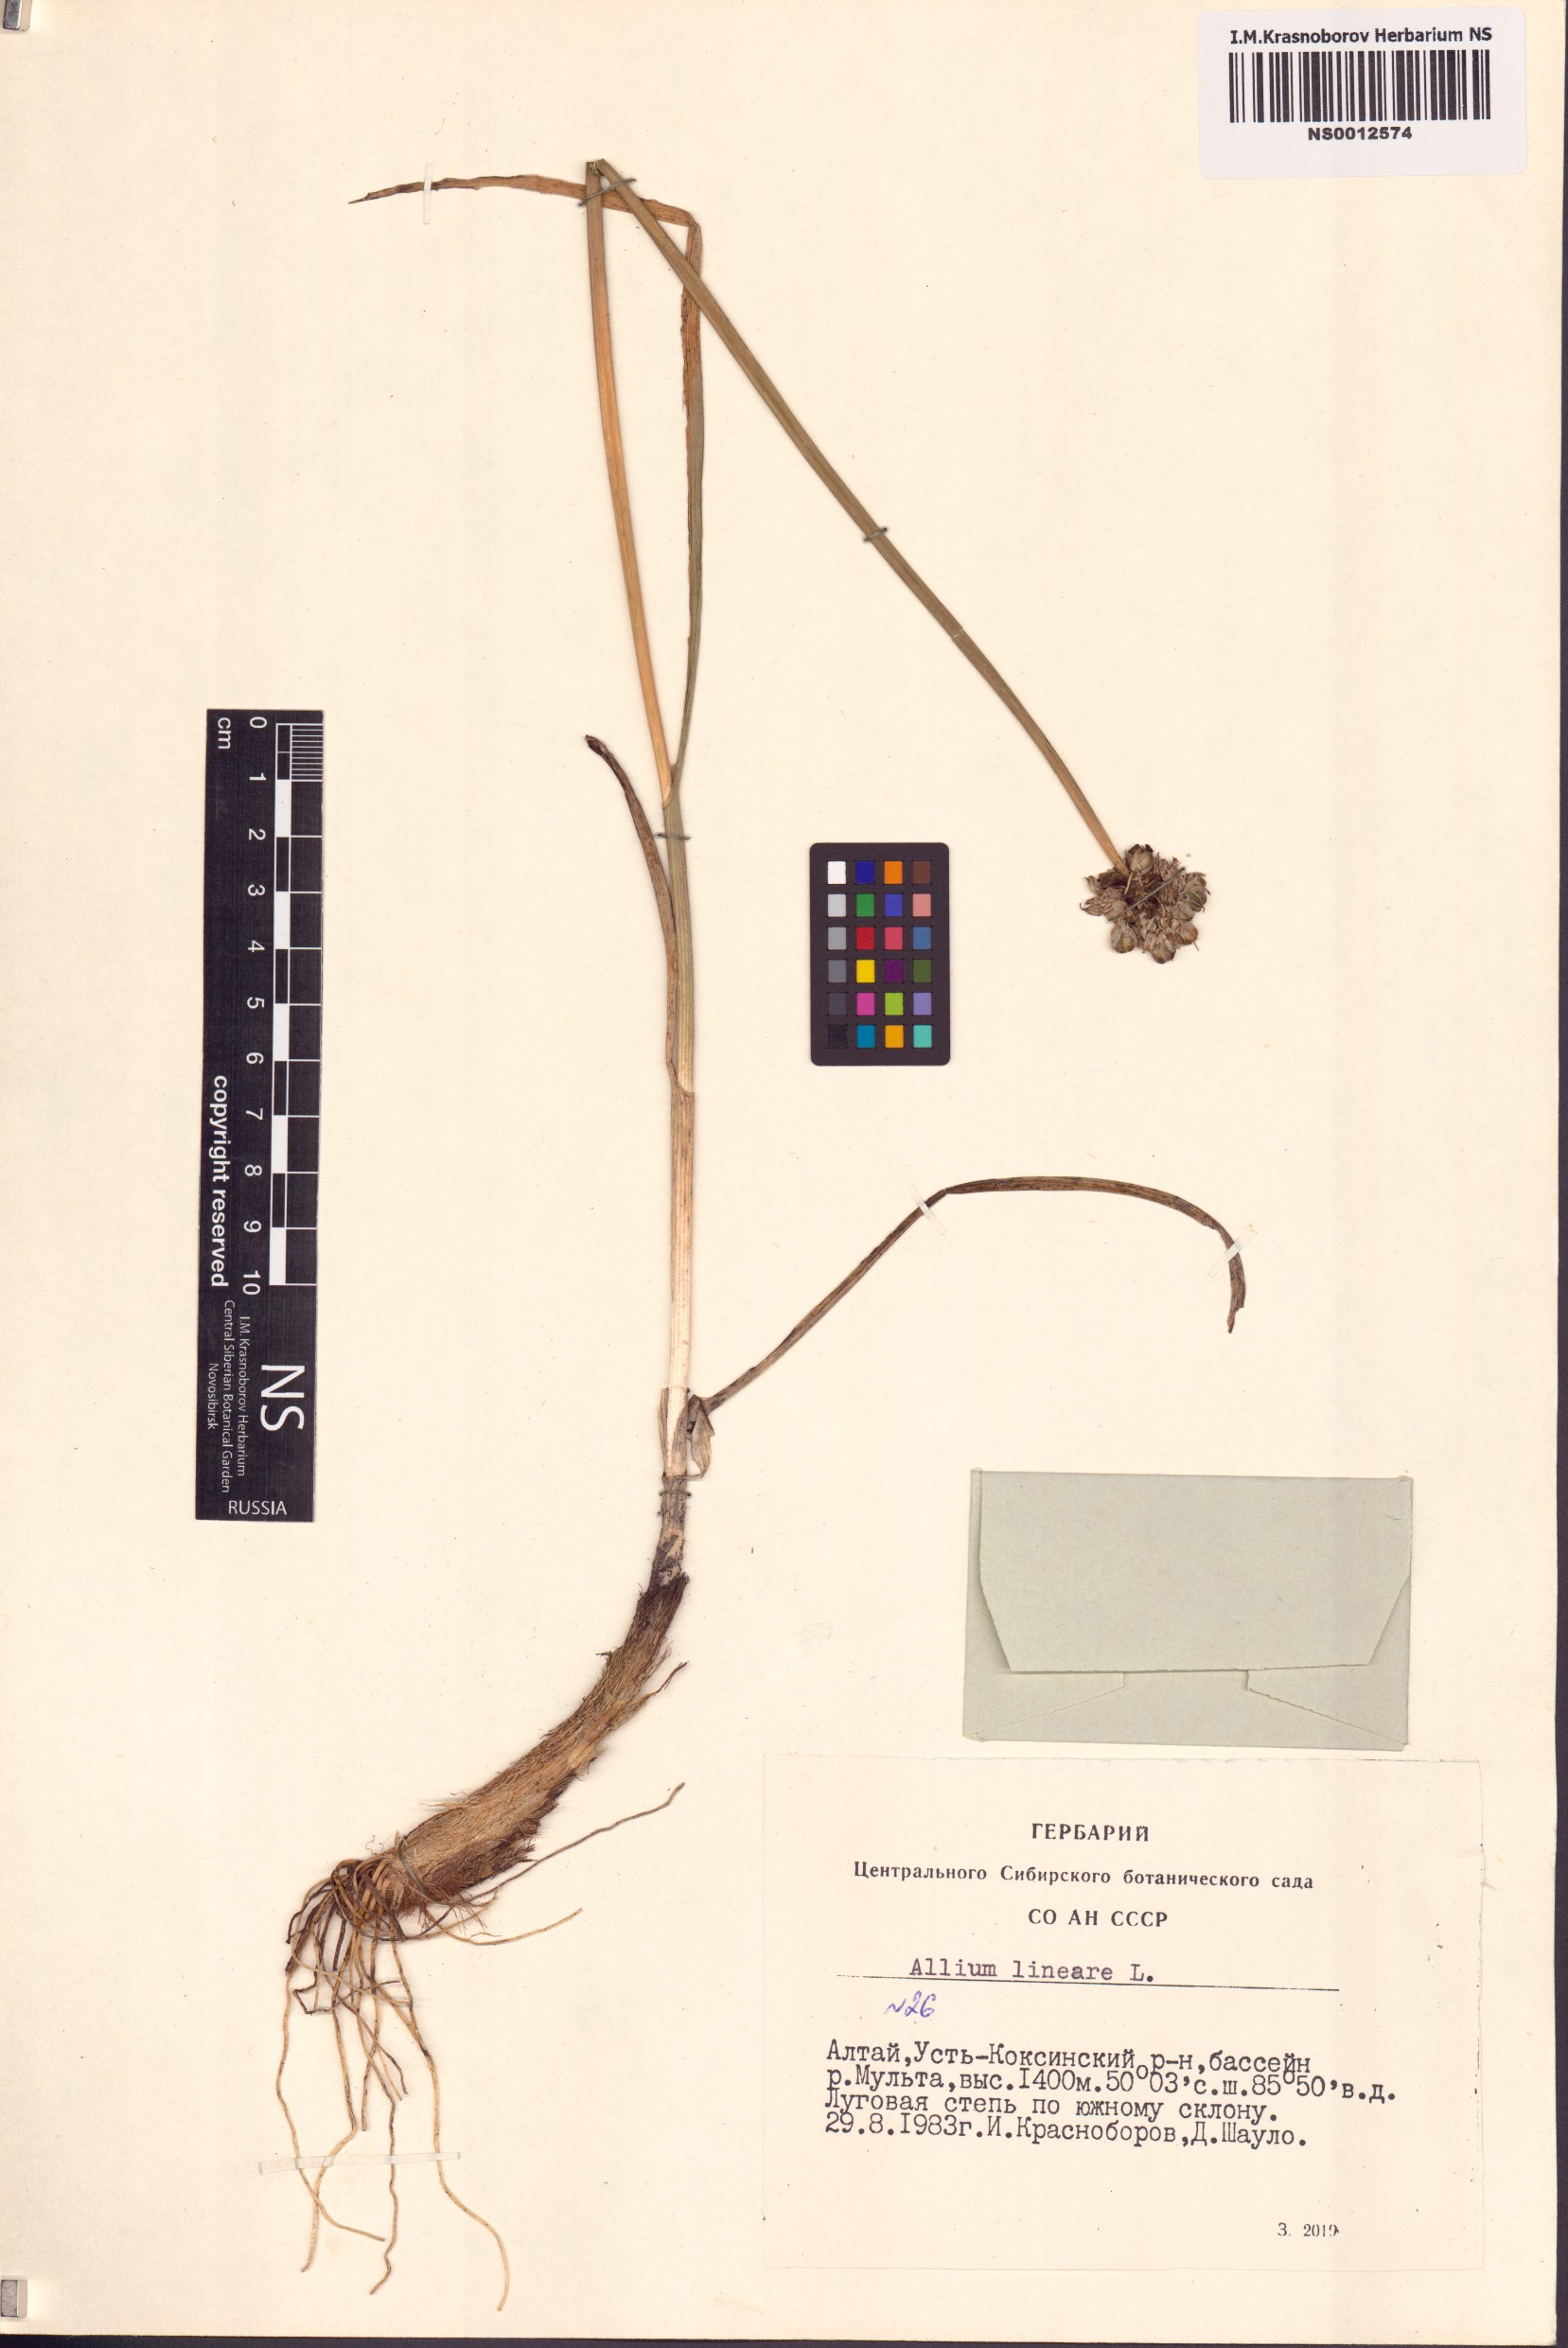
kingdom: Plantae
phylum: Tracheophyta
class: Liliopsida
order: Asparagales
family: Amaryllidaceae
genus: Allium
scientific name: Allium lineare
